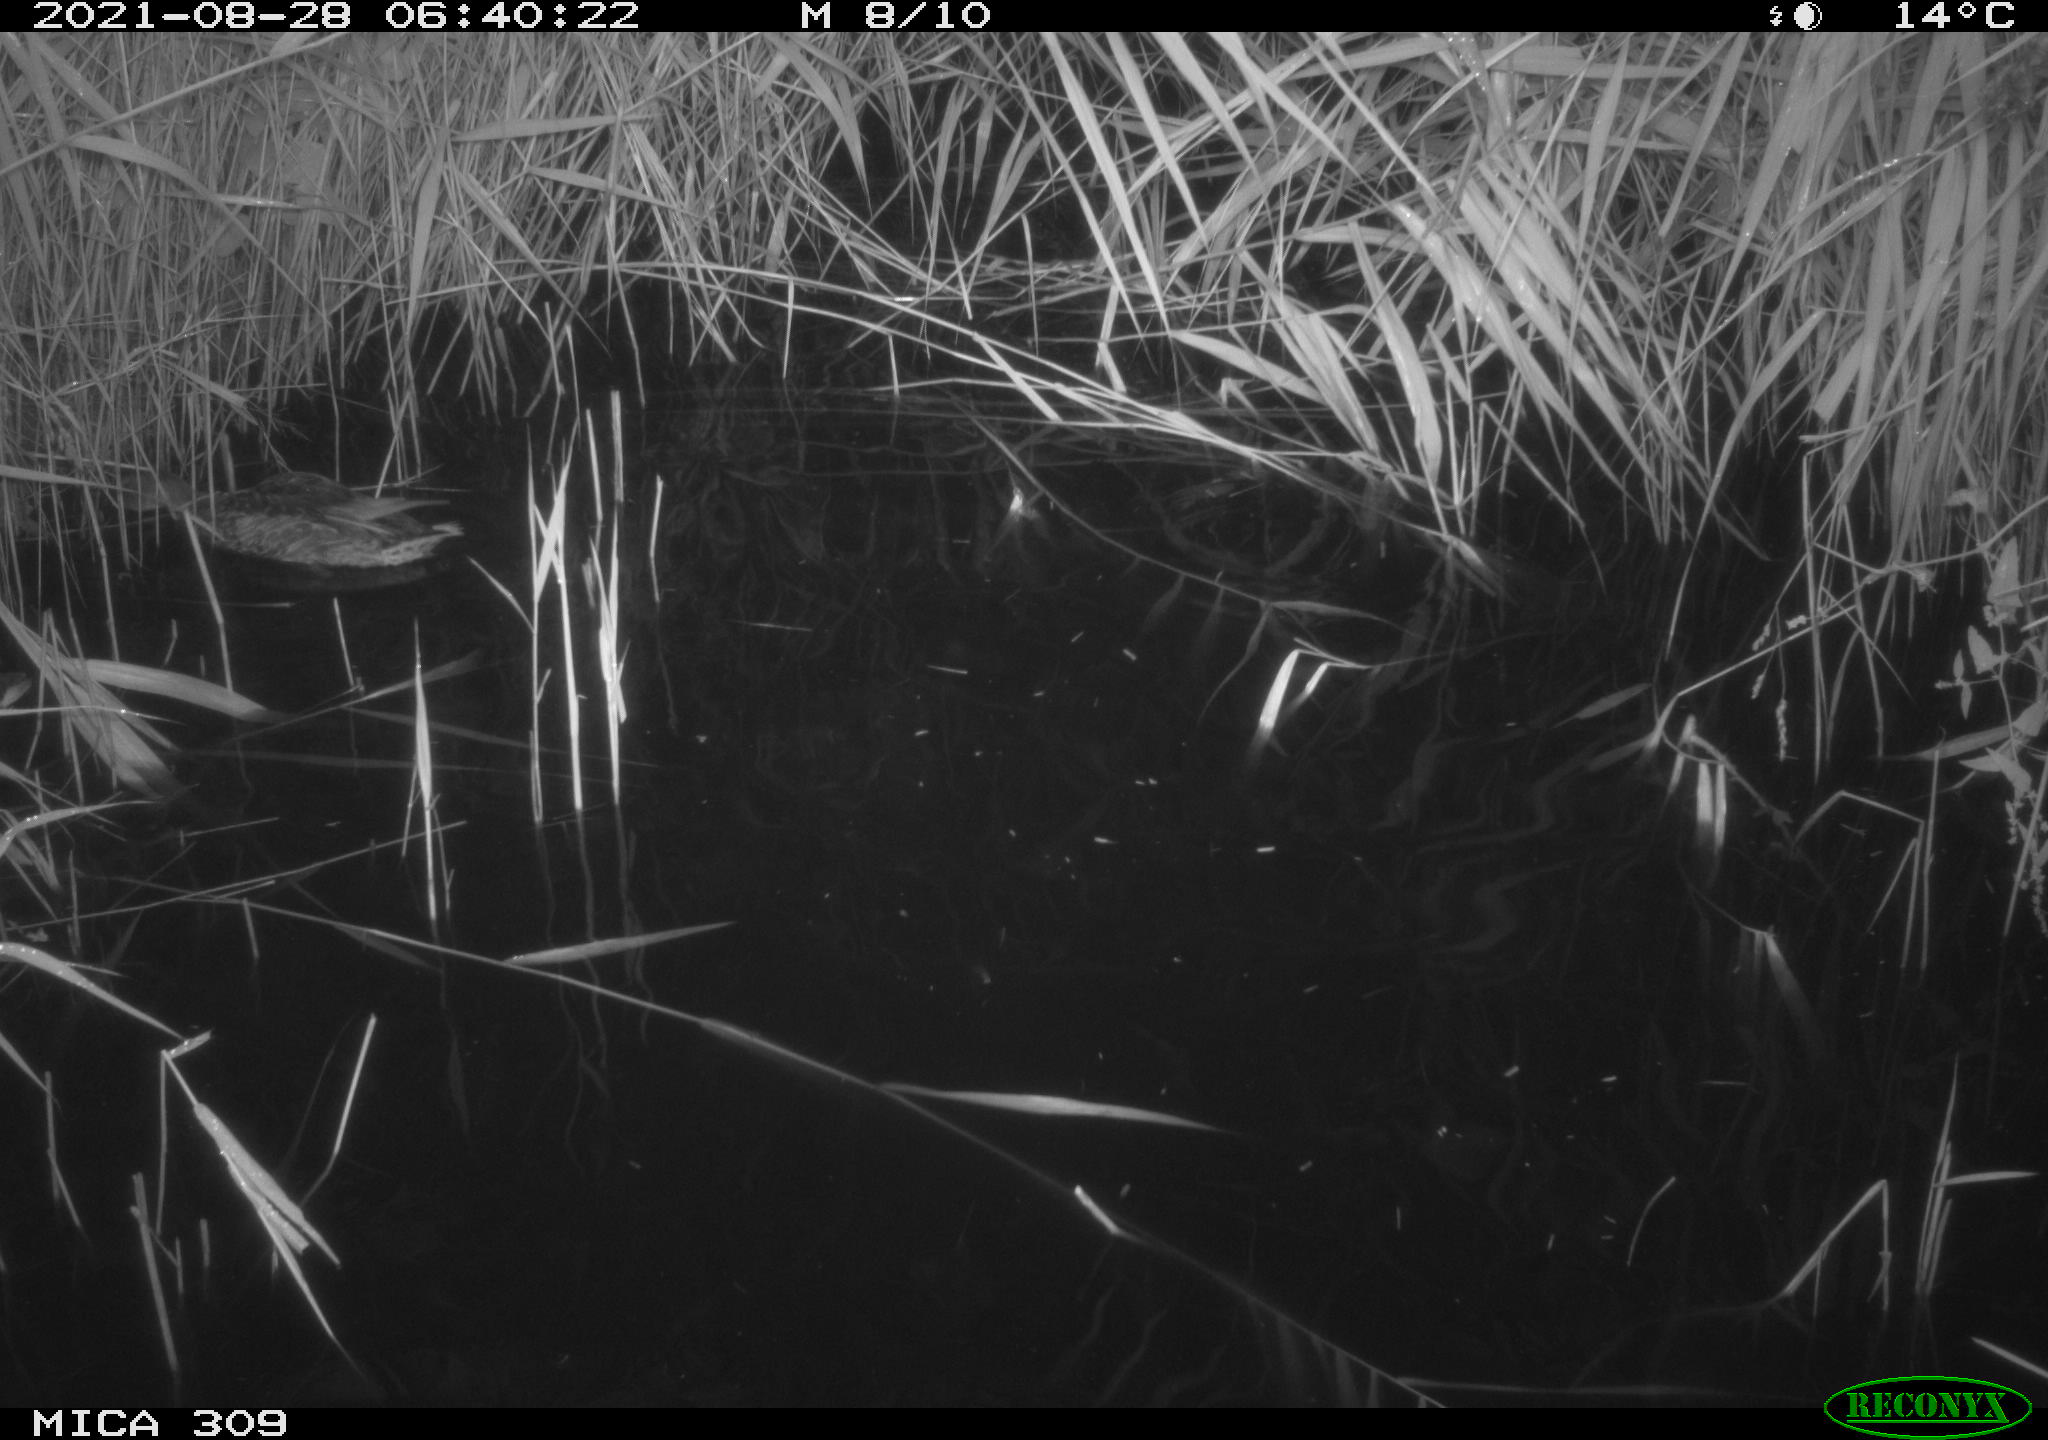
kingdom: Animalia
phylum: Chordata
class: Aves
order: Anseriformes
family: Anatidae
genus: Anas
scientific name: Anas platyrhynchos
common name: Mallard
